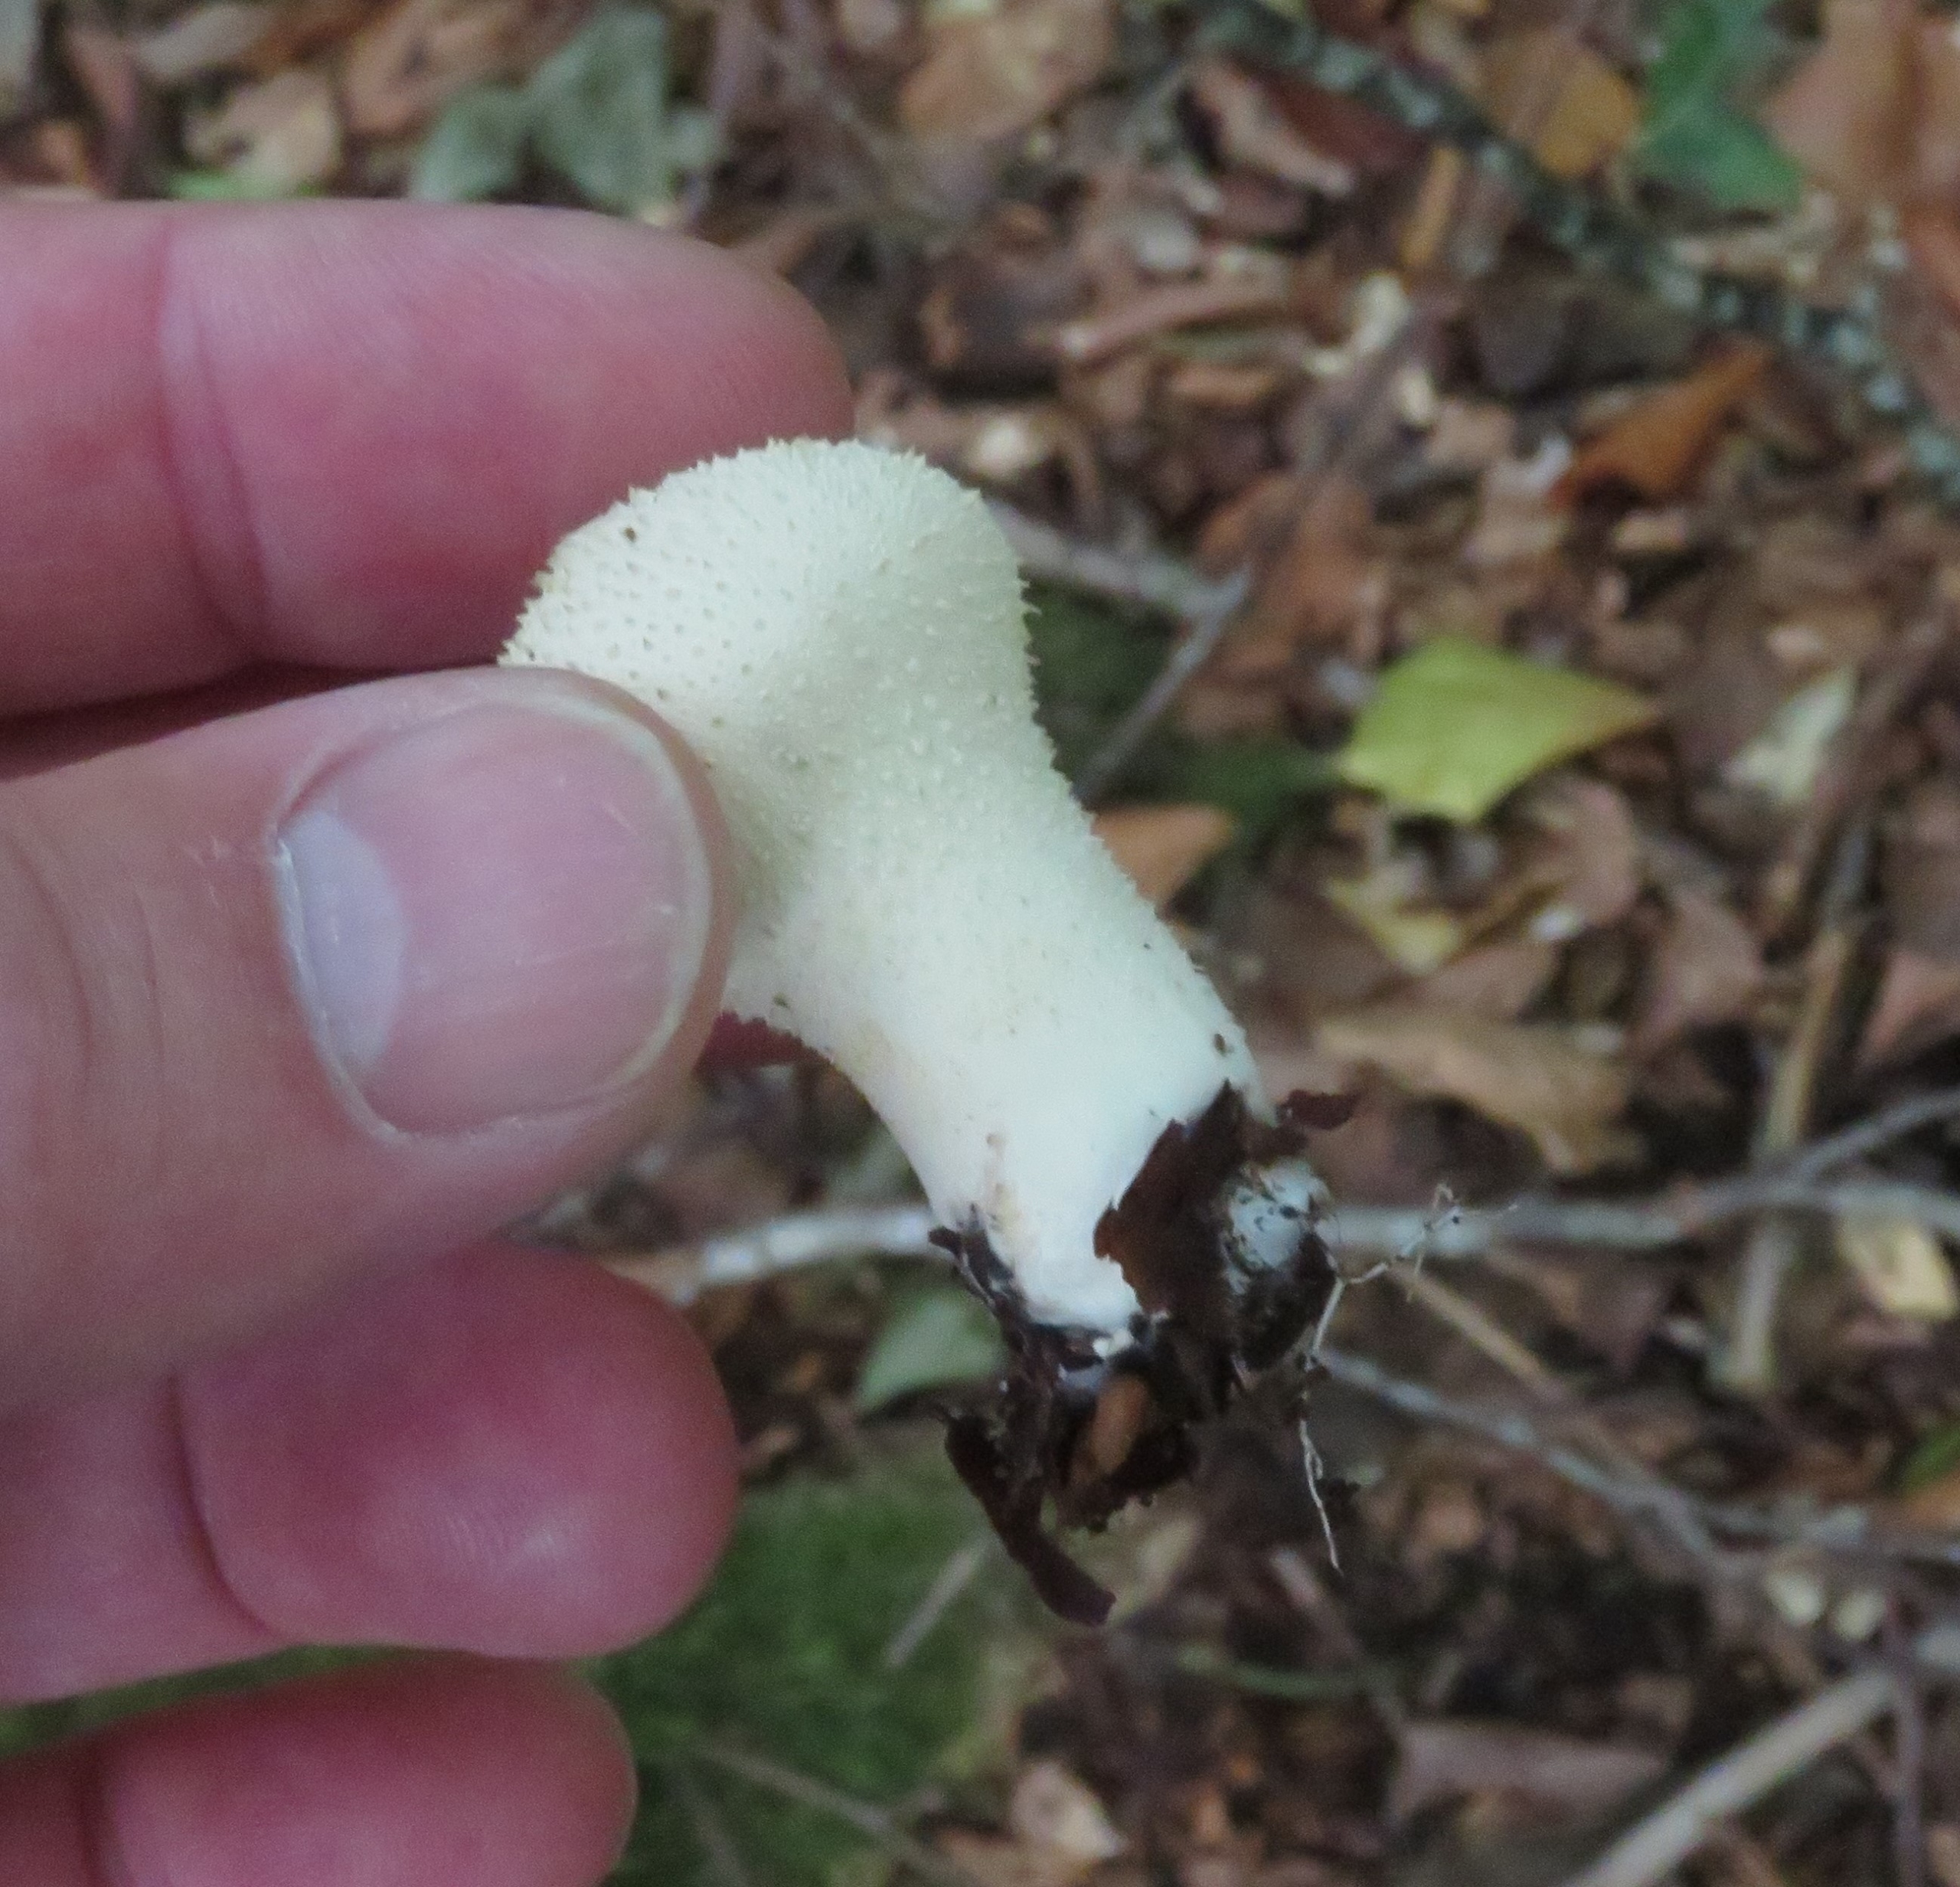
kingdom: Fungi
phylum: Basidiomycota
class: Agaricomycetes
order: Agaricales
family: Lycoperdaceae
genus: Lycoperdon
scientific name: Lycoperdon perlatum
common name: Krystal-støvbold
